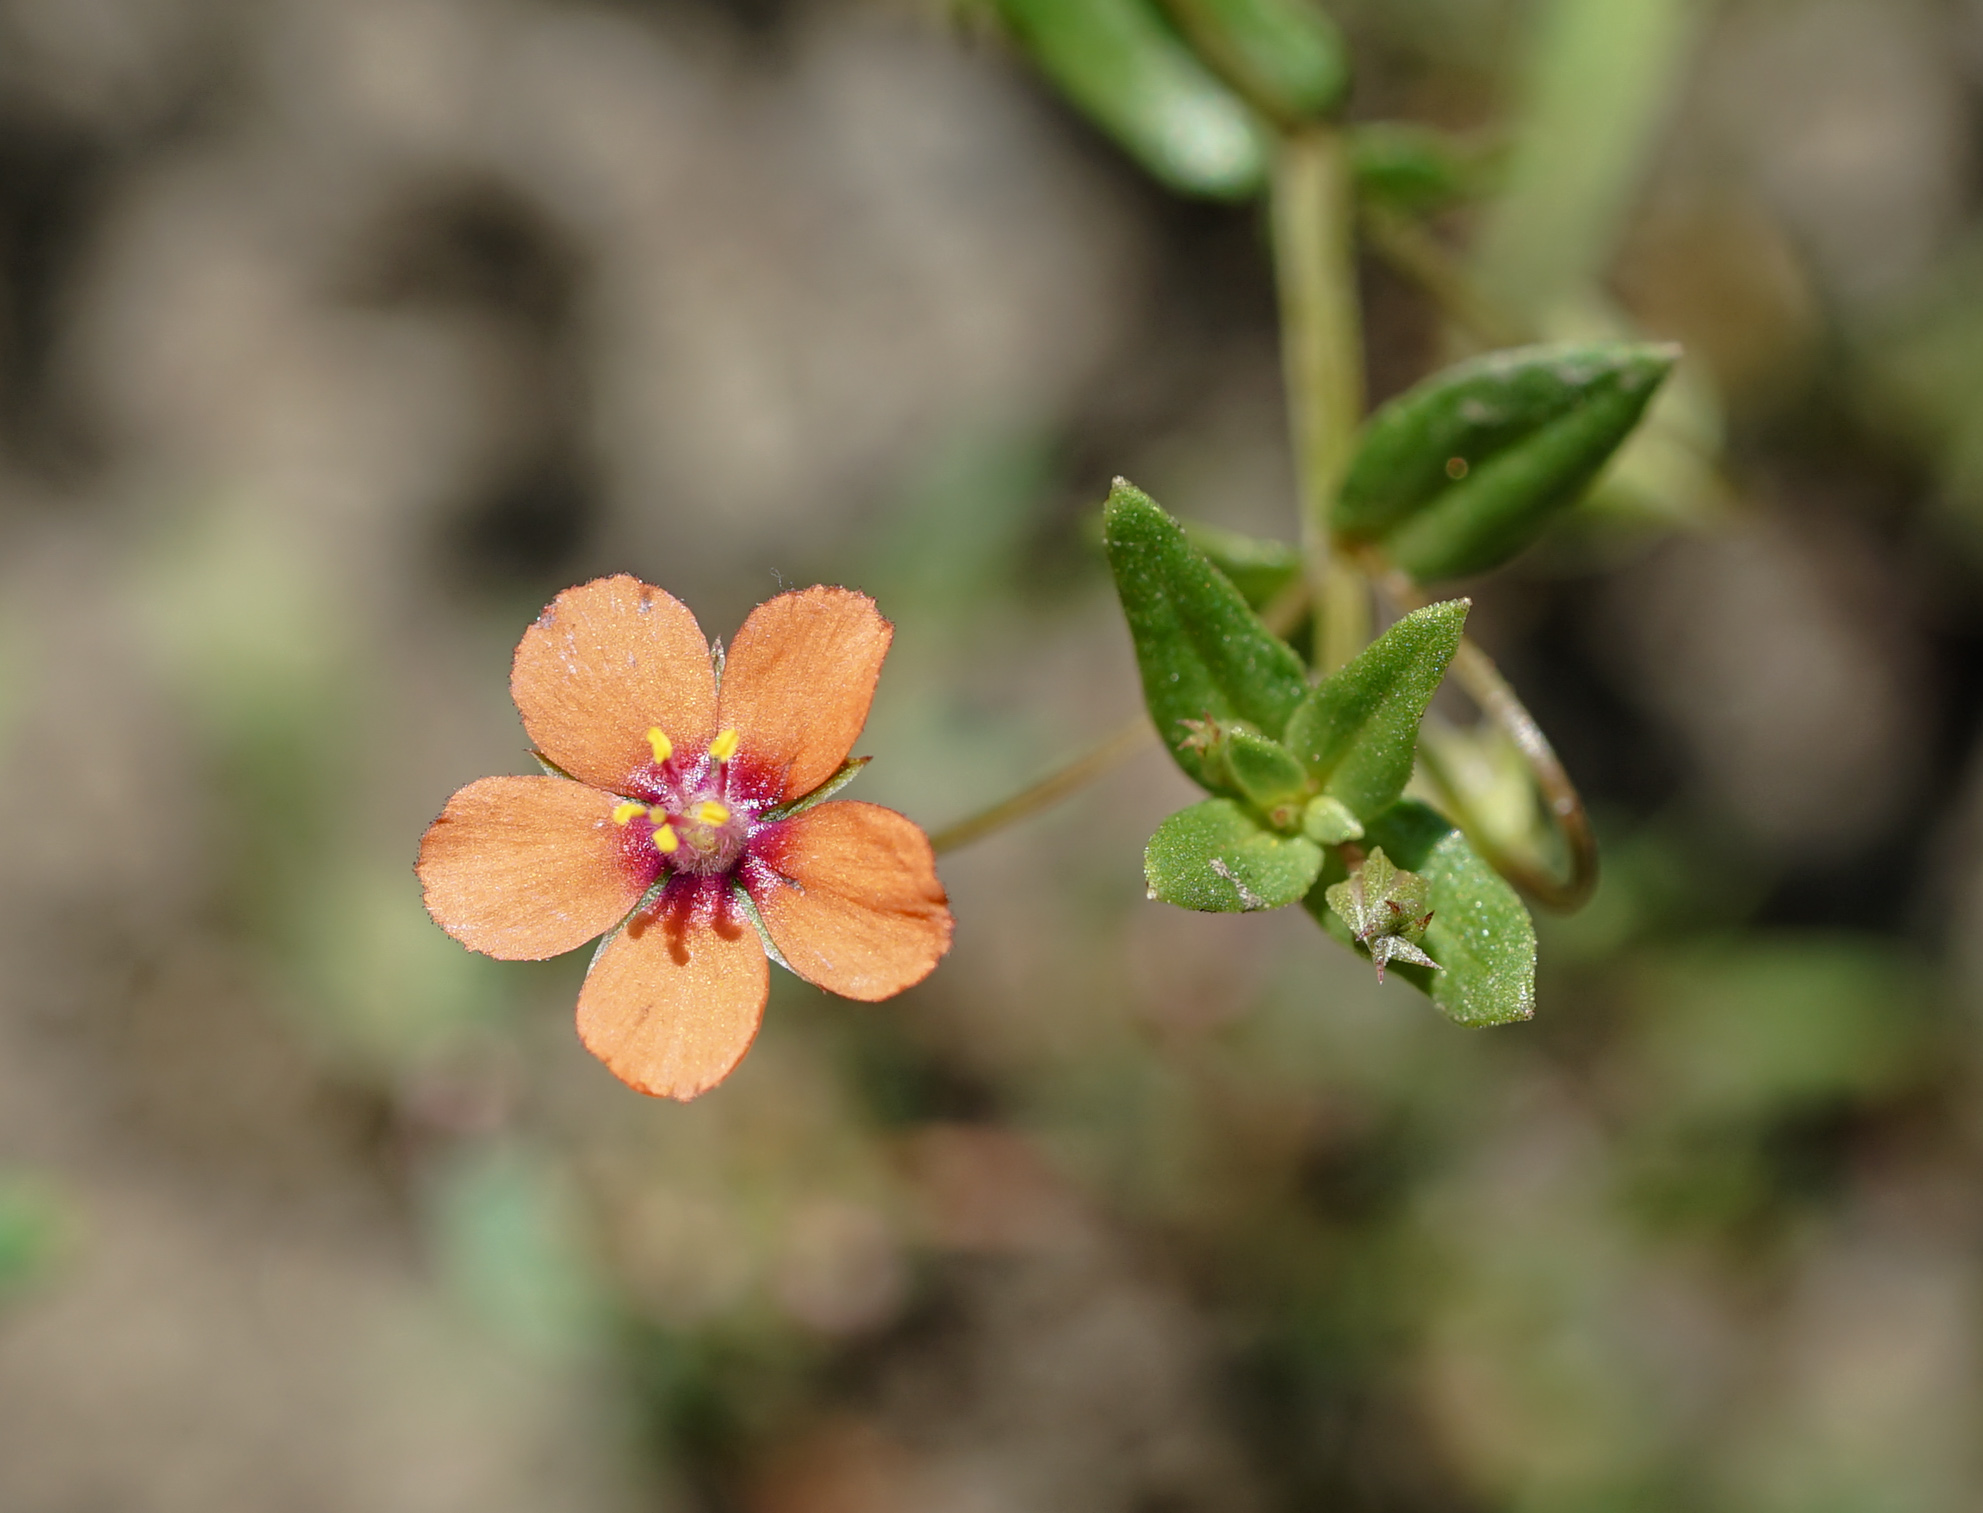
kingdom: Plantae
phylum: Tracheophyta
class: Magnoliopsida
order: Ericales
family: Primulaceae
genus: Lysimachia
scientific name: Lysimachia arvensis
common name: Scarlet pimpernel
